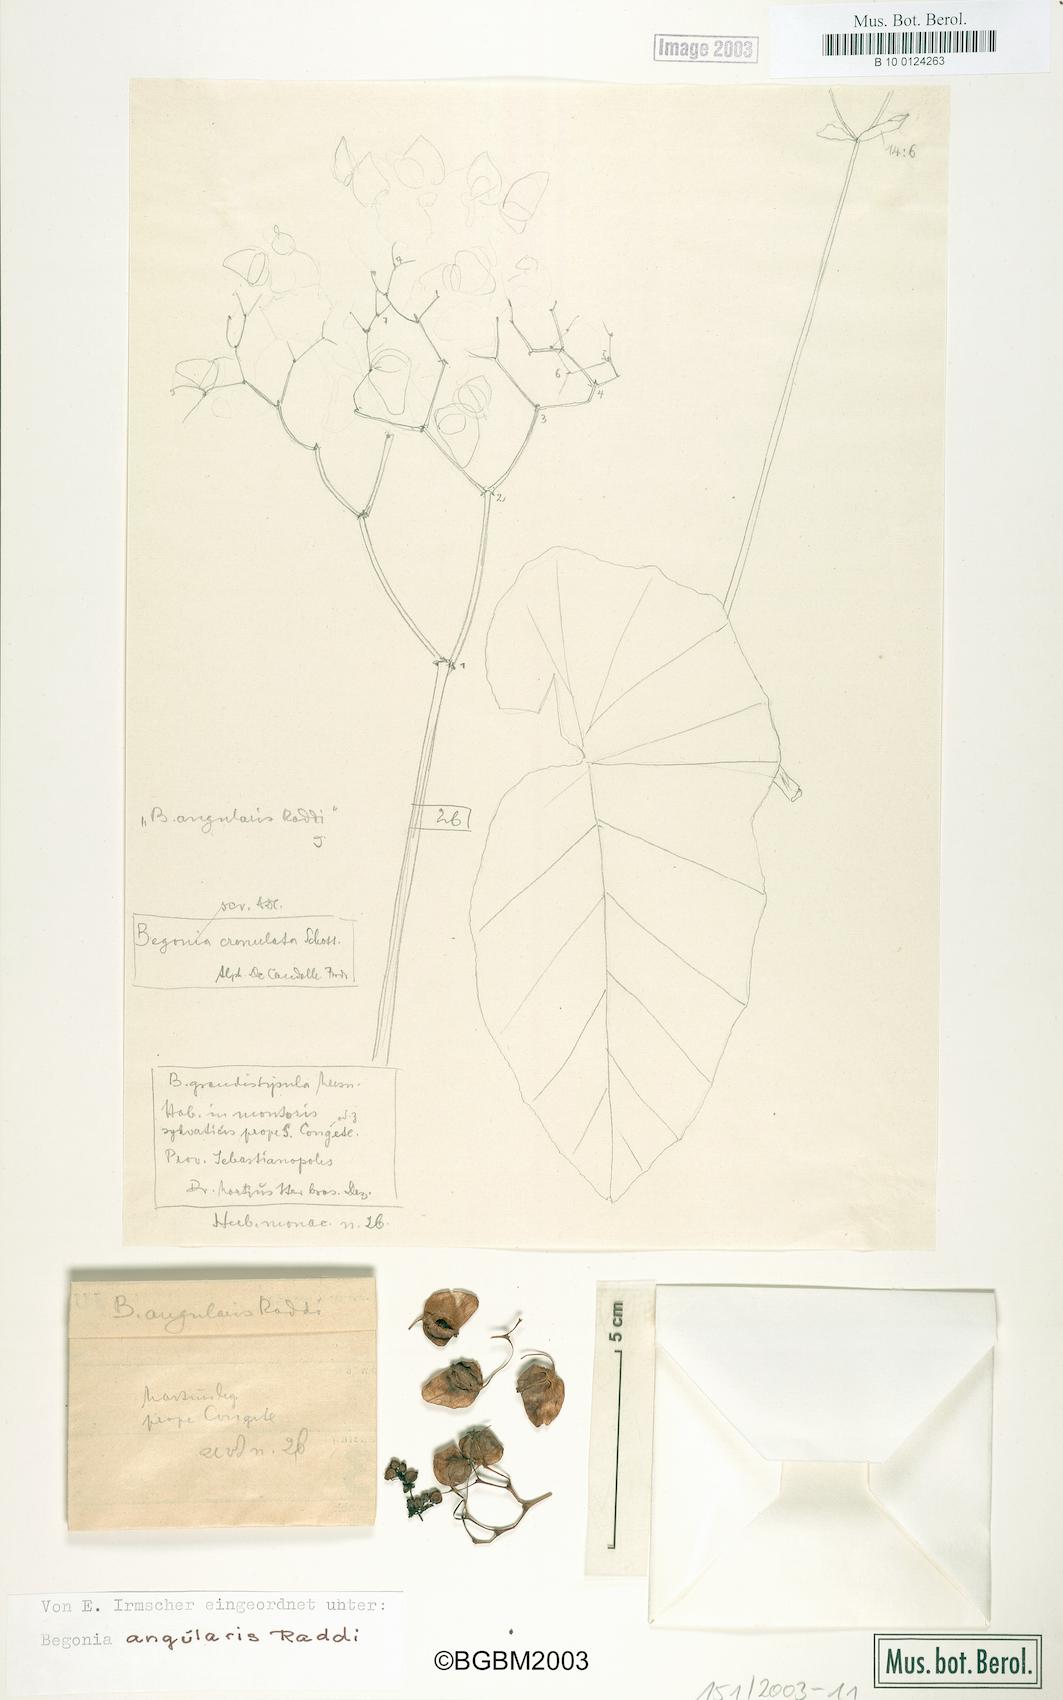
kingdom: Plantae
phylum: Tracheophyta
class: Magnoliopsida
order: Cucurbitales
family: Begoniaceae
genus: Begonia
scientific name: Begonia angularis
